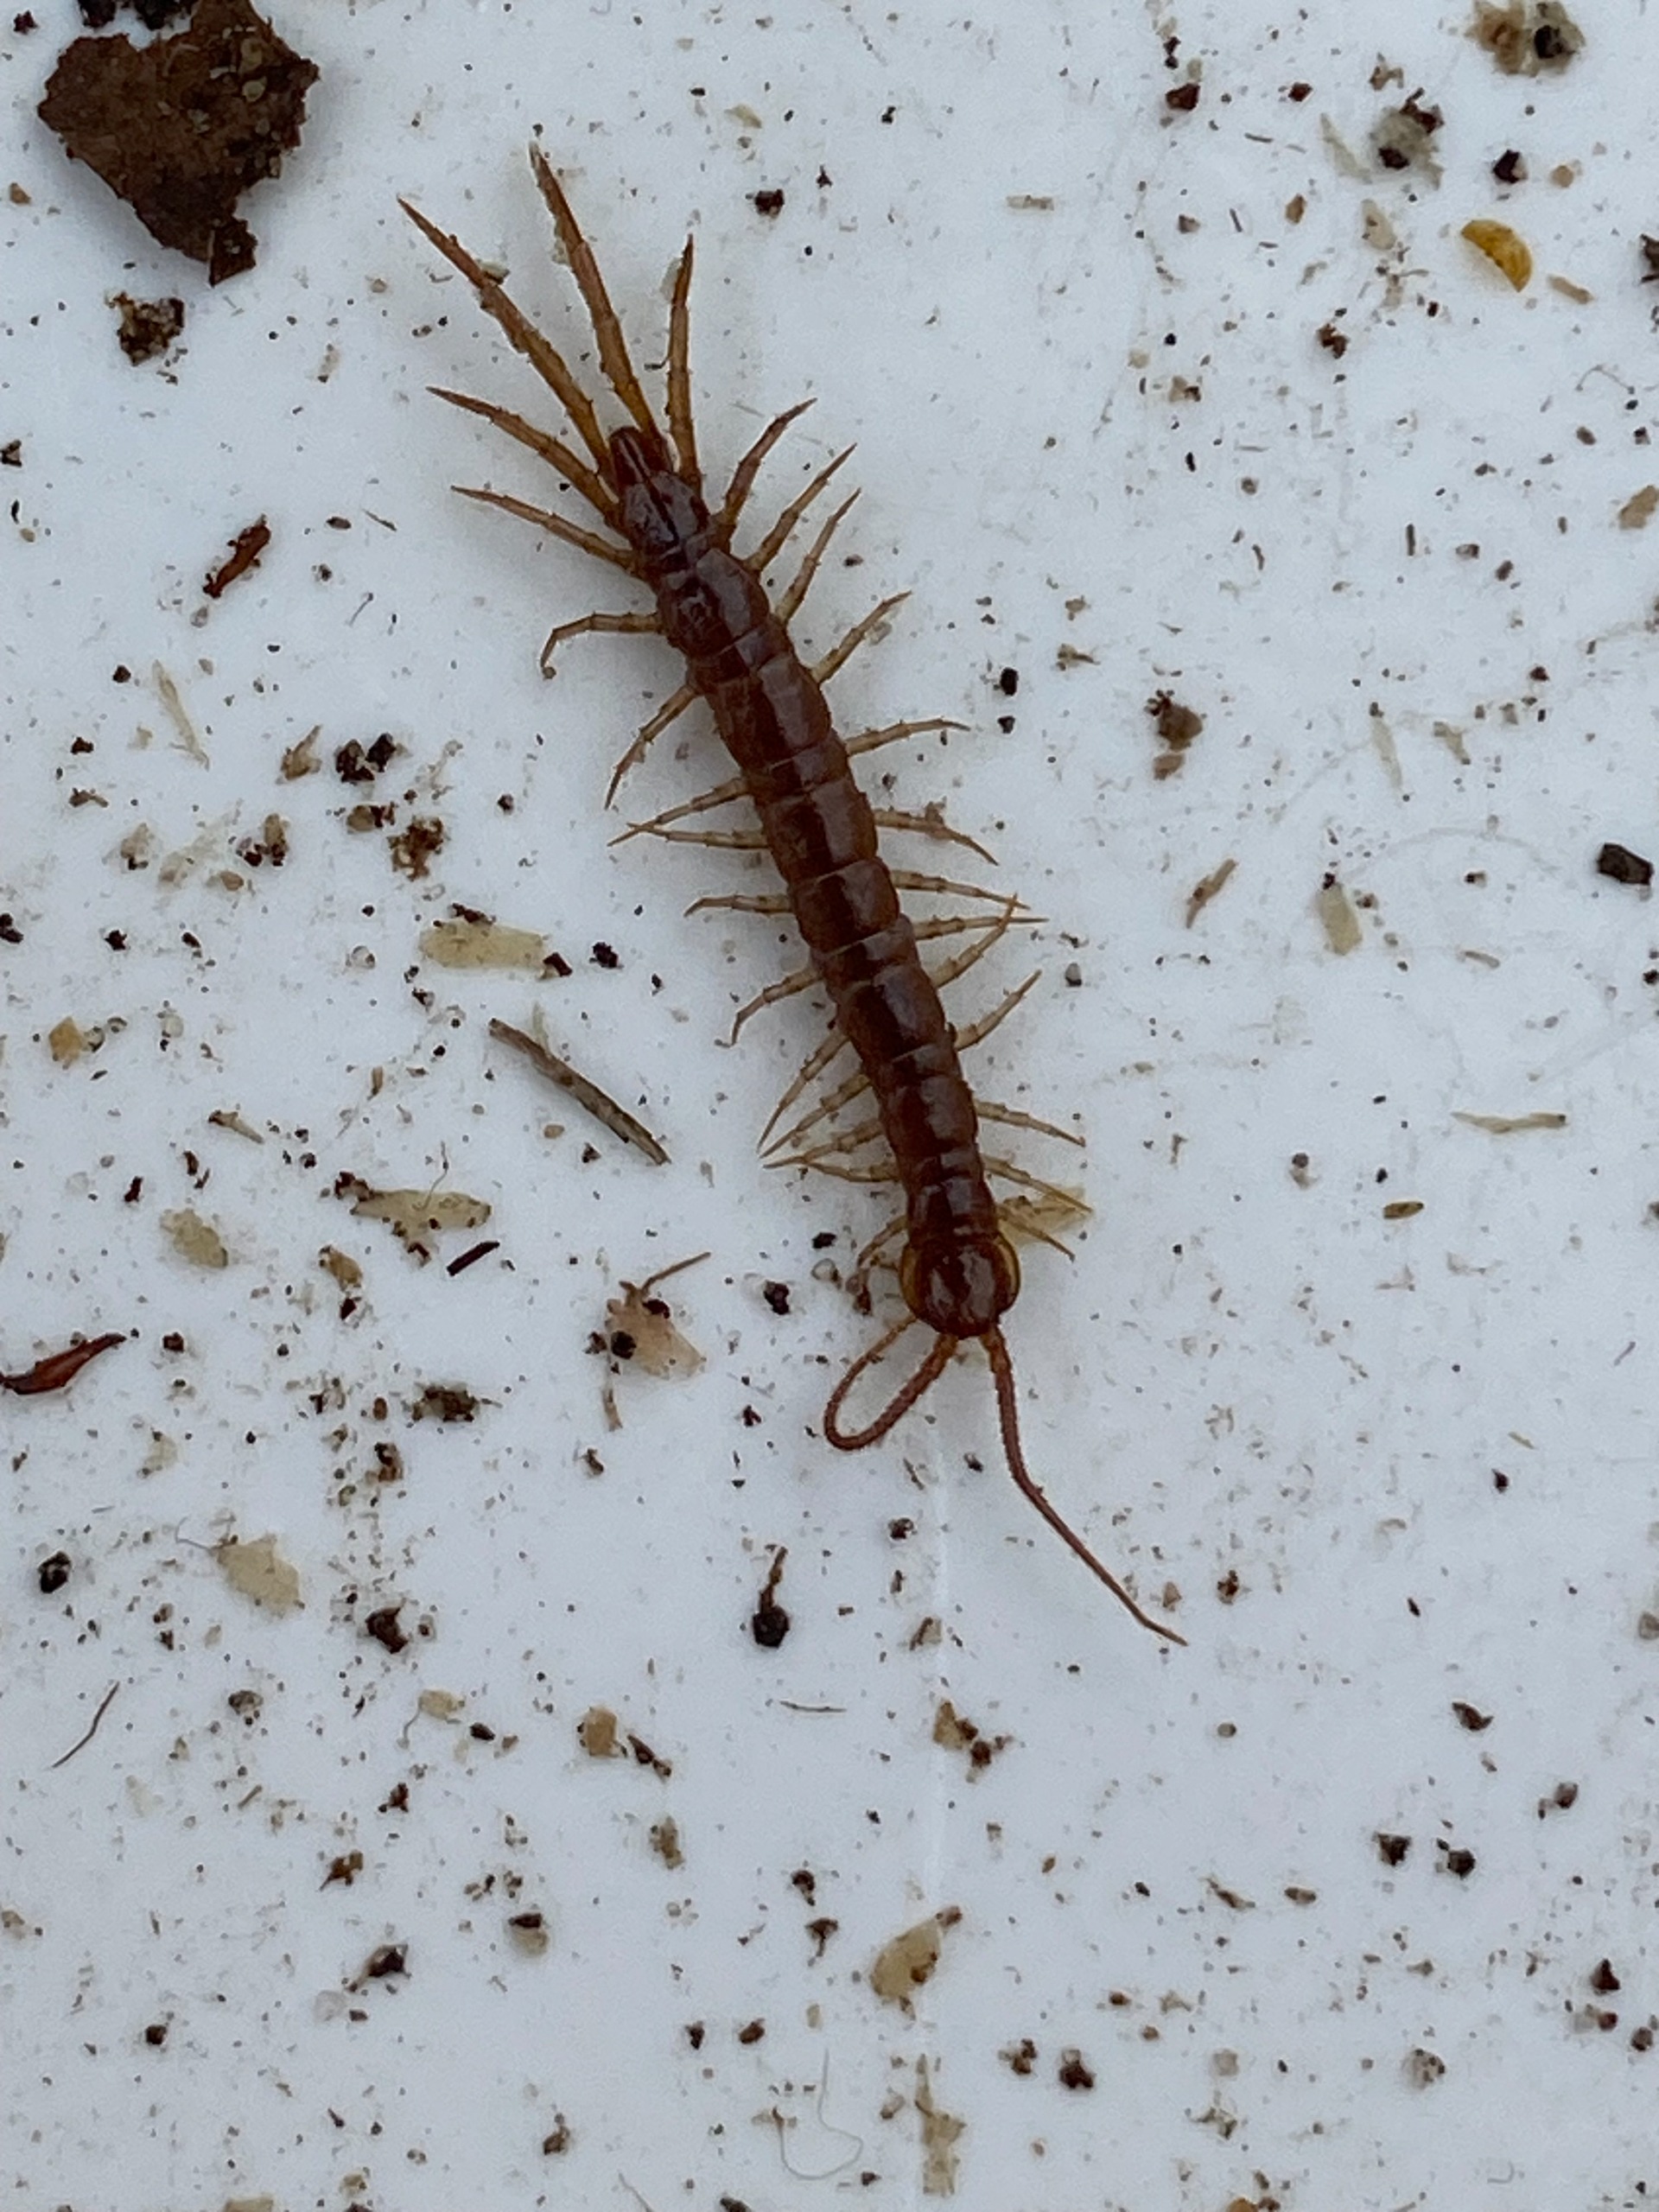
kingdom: Animalia
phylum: Arthropoda
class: Chilopoda
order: Lithobiomorpha
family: Lithobiidae
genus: Lithobius
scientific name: Lithobius forficatus
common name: Stenskolopender
